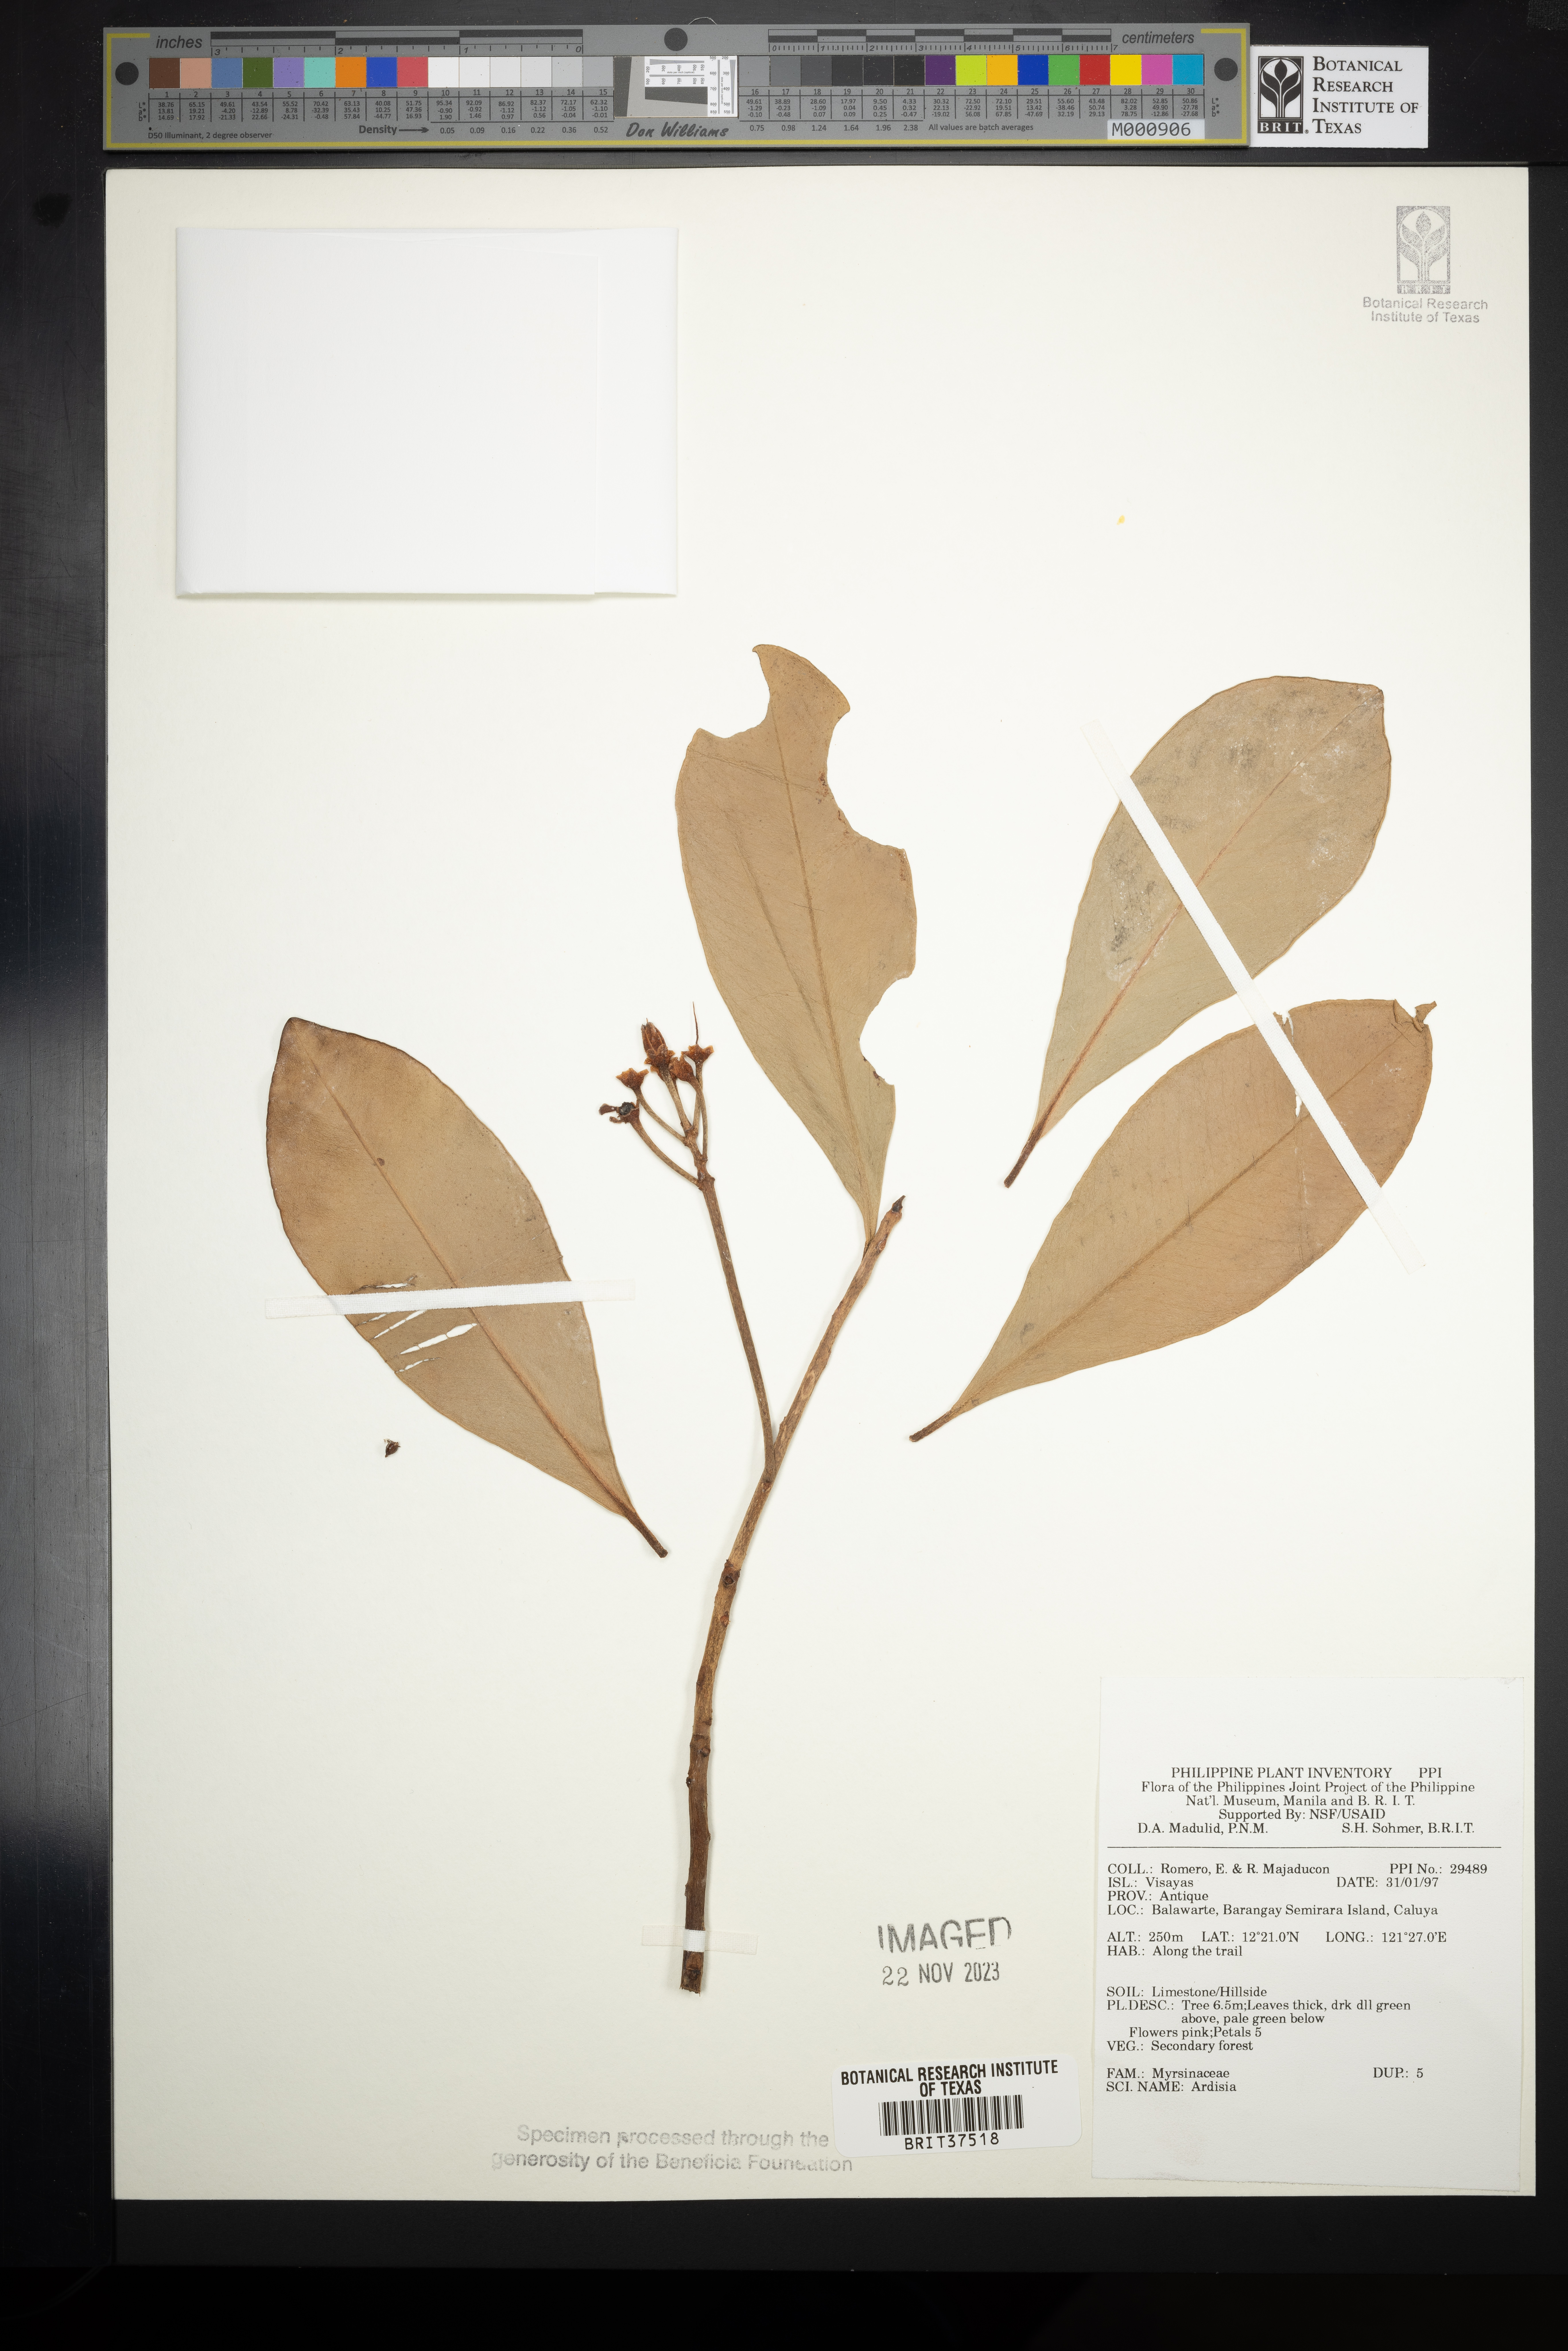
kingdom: Plantae
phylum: Tracheophyta
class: Magnoliopsida
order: Ericales
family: Primulaceae
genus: Ardisia
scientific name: Ardisia
